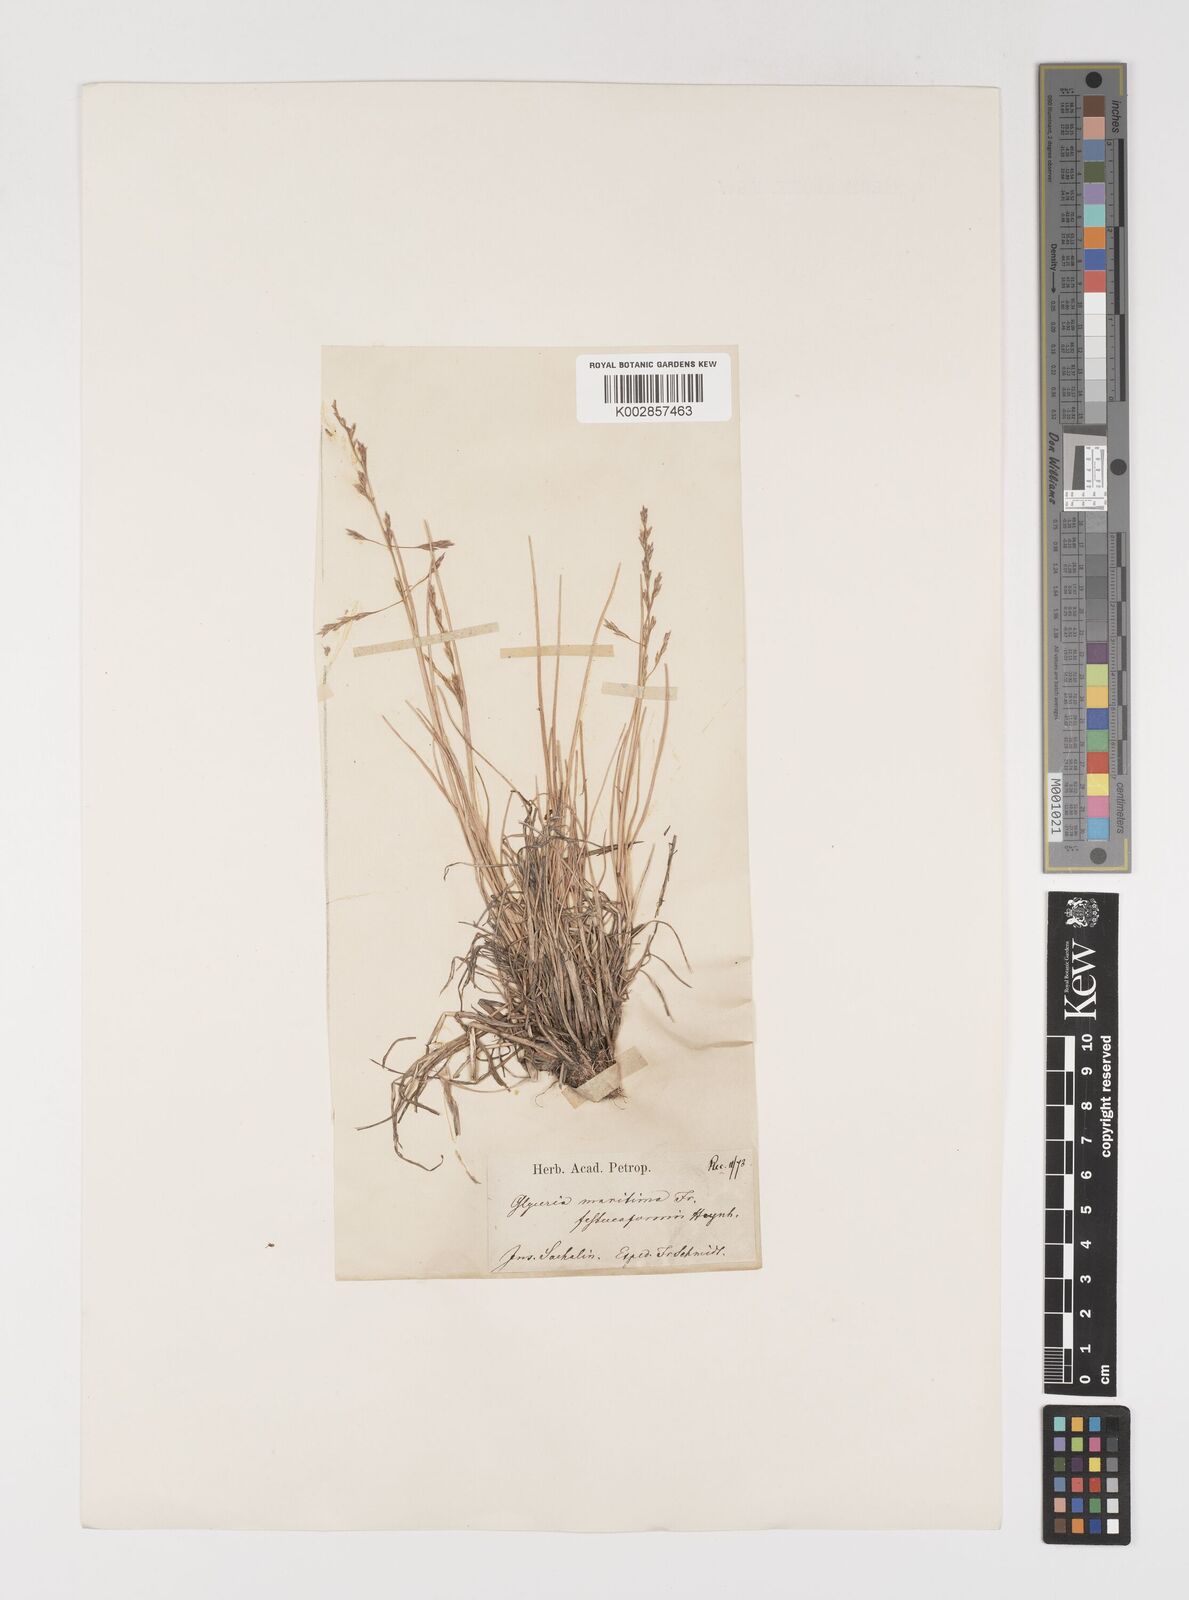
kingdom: Plantae
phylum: Tracheophyta
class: Liliopsida
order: Poales
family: Poaceae
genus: Puccinellia
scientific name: Puccinellia
